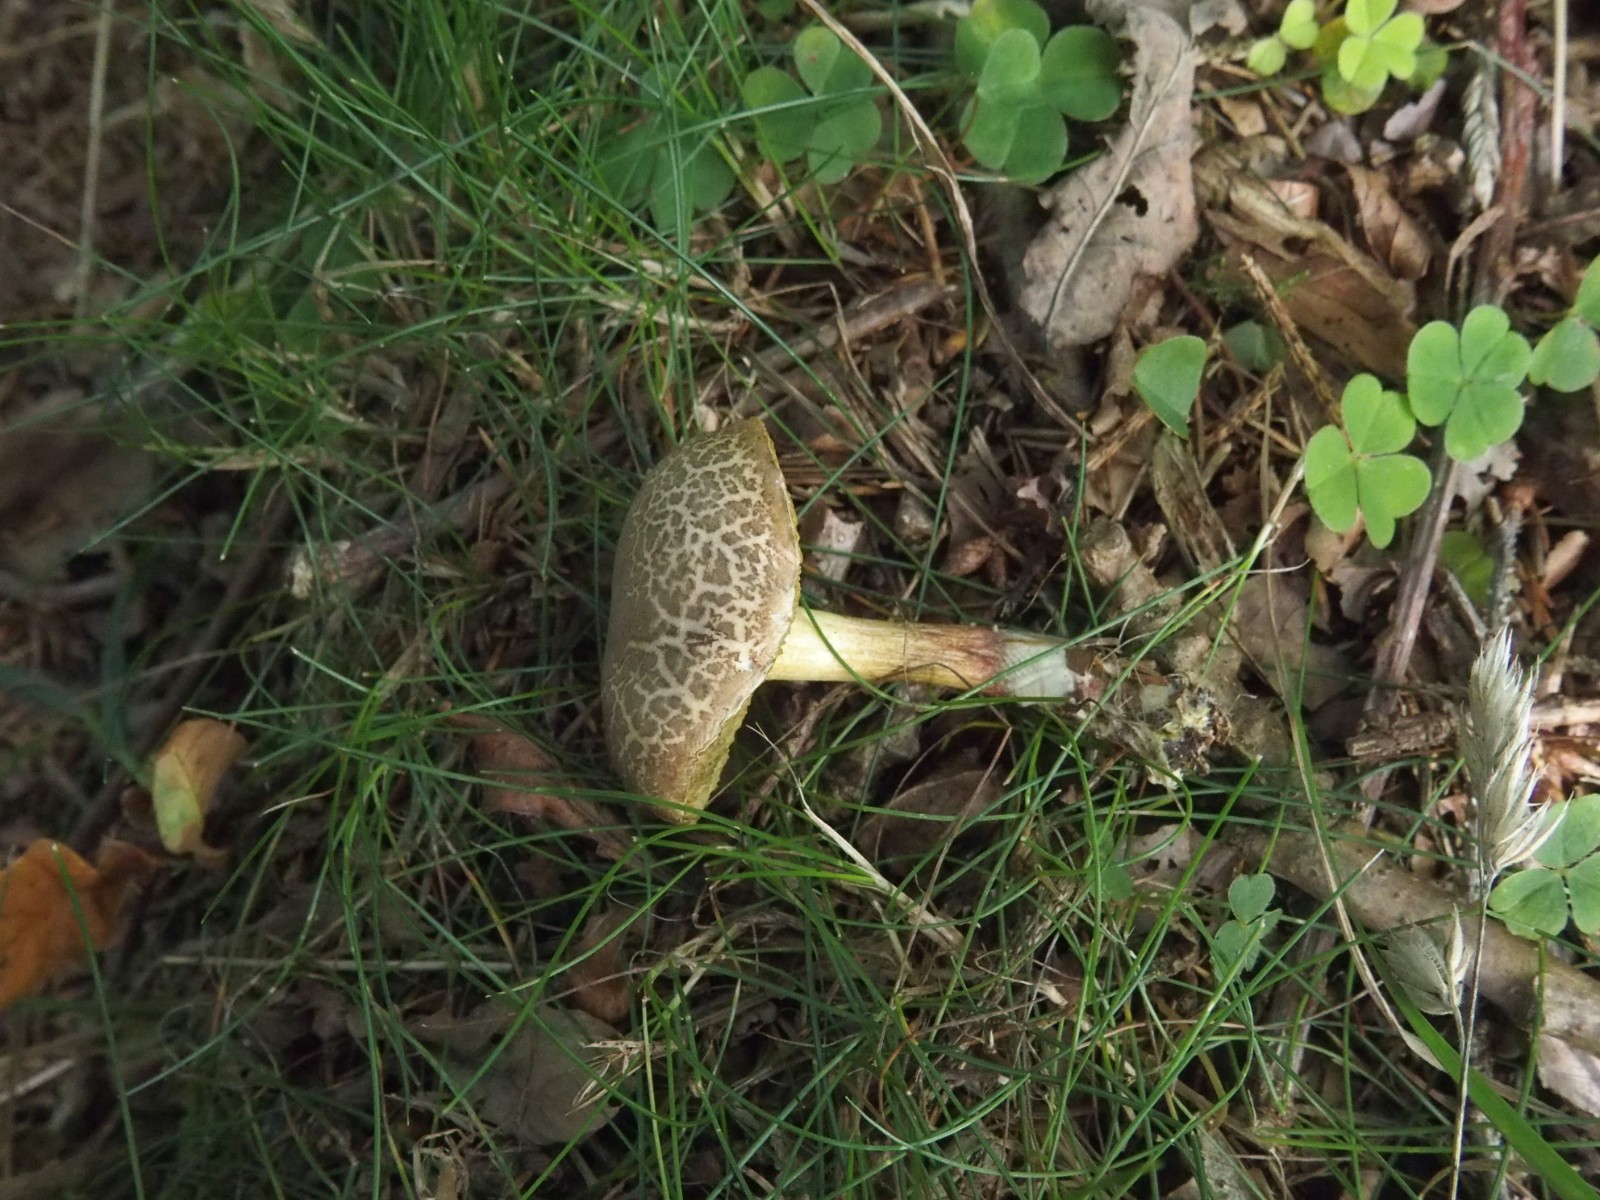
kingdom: Fungi
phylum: Basidiomycota
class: Agaricomycetes
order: Boletales
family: Boletaceae
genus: Xerocomellus
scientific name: Xerocomellus chrysenteron
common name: rødsprukken rørhat
